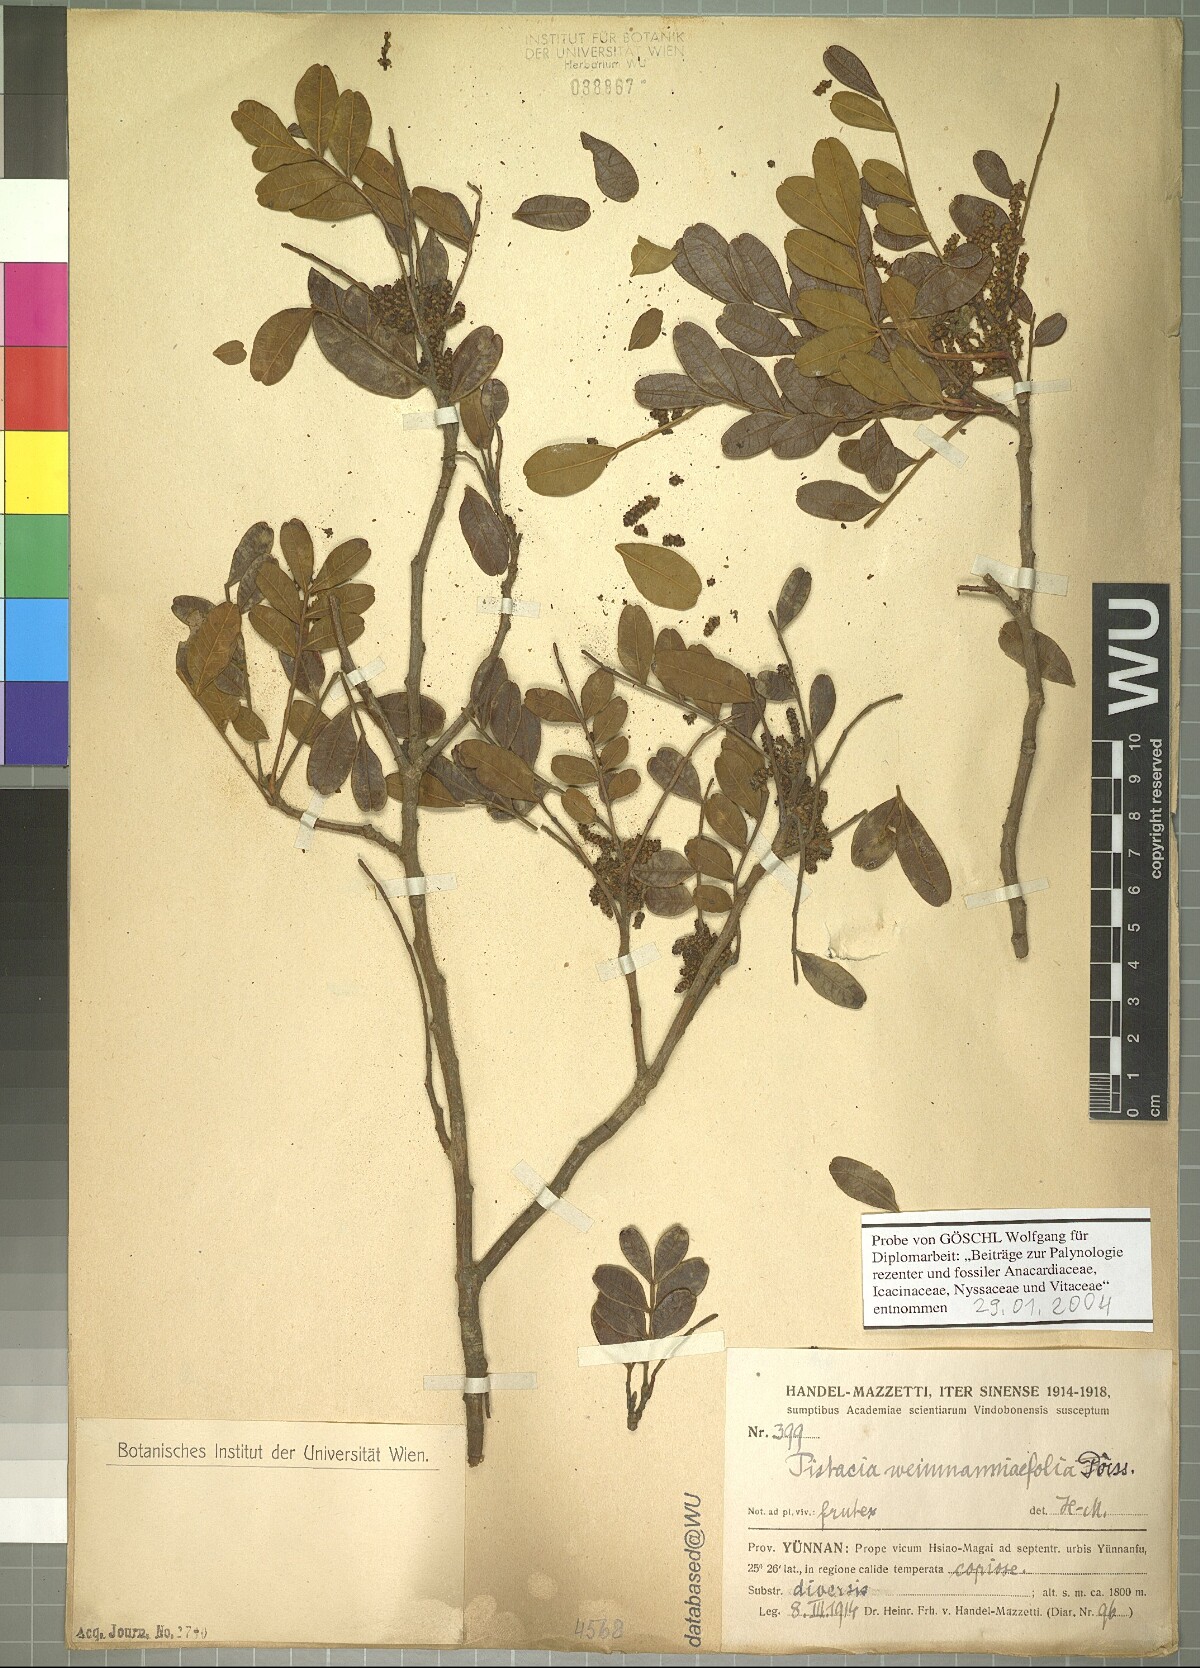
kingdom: Plantae
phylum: Tracheophyta
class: Magnoliopsida
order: Sapindales
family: Anacardiaceae
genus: Pistacia
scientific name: Pistacia weinmannifolia
